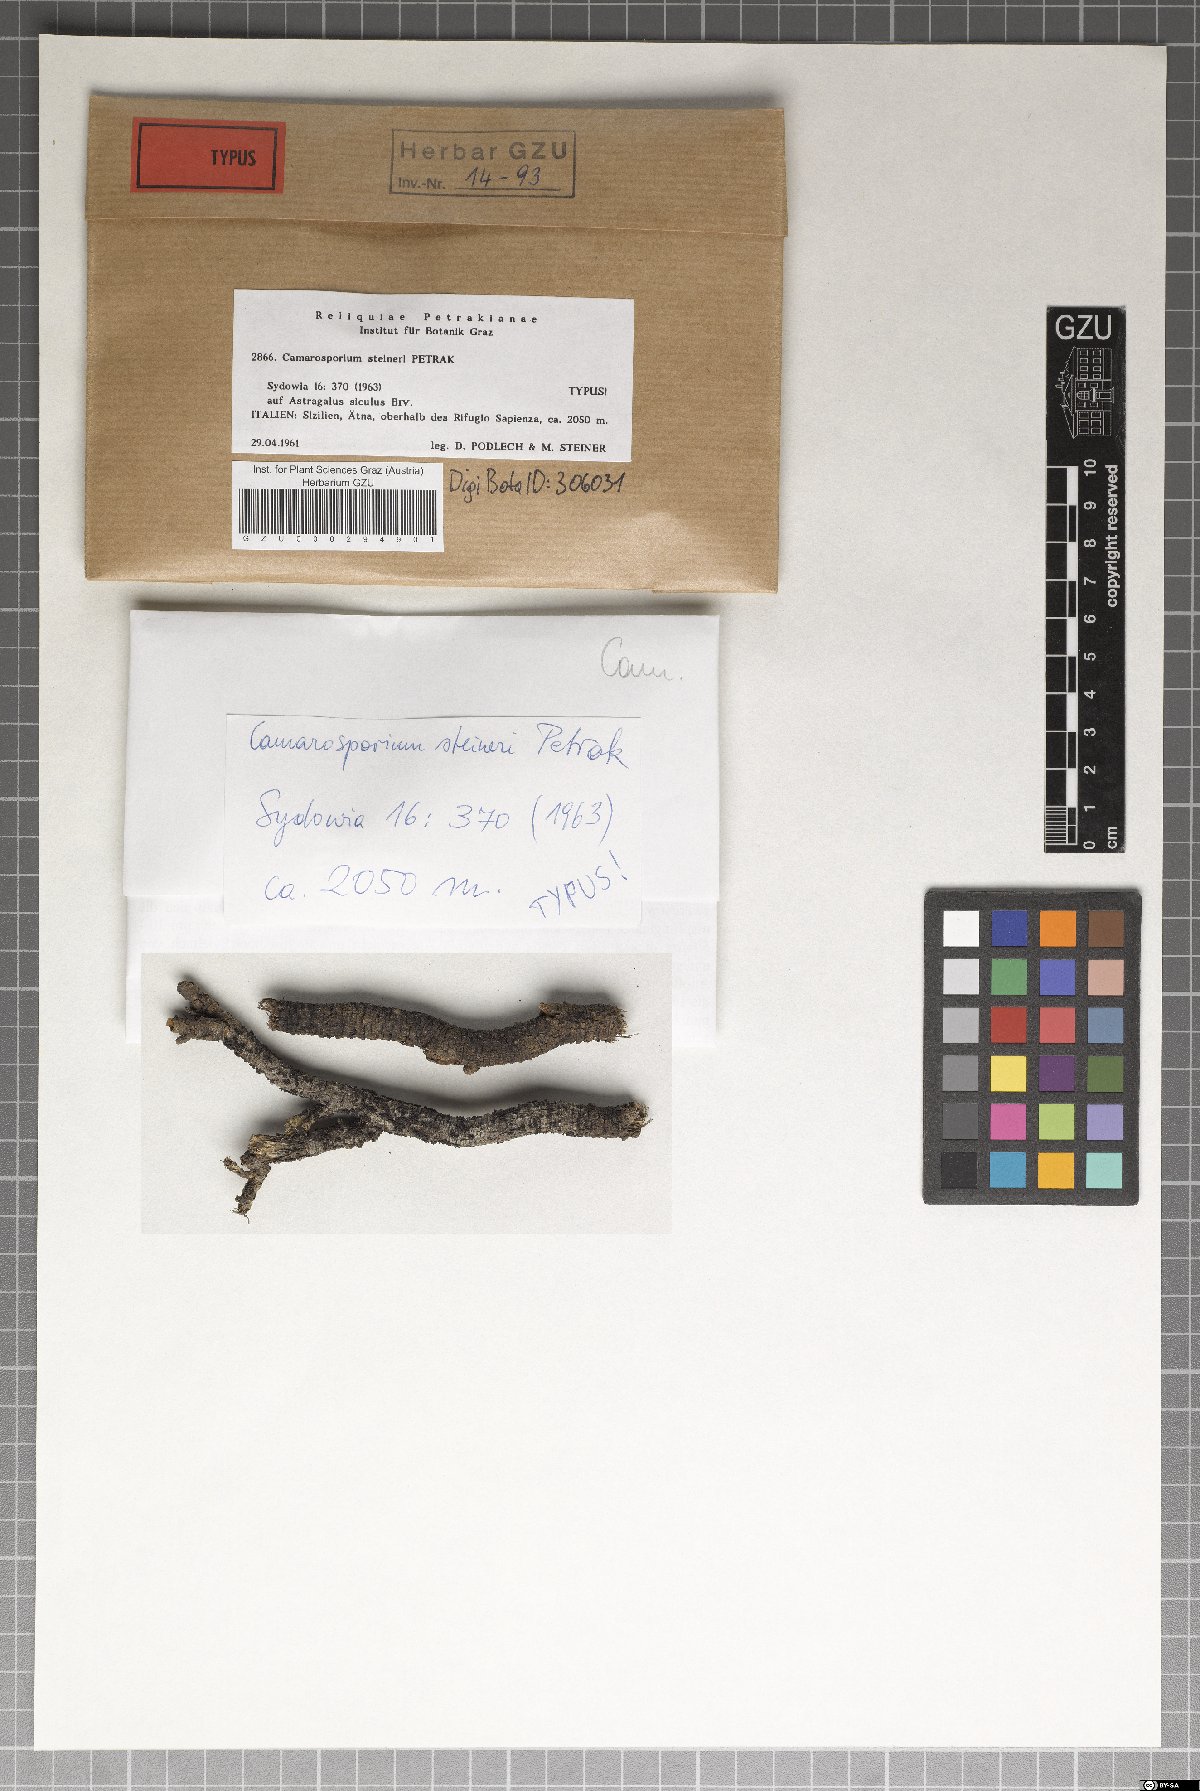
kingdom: Fungi
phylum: Ascomycota
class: Dothideomycetes
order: Pleosporales
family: Camarosporiaceae
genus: Camarosporium
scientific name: Camarosporium steineri
